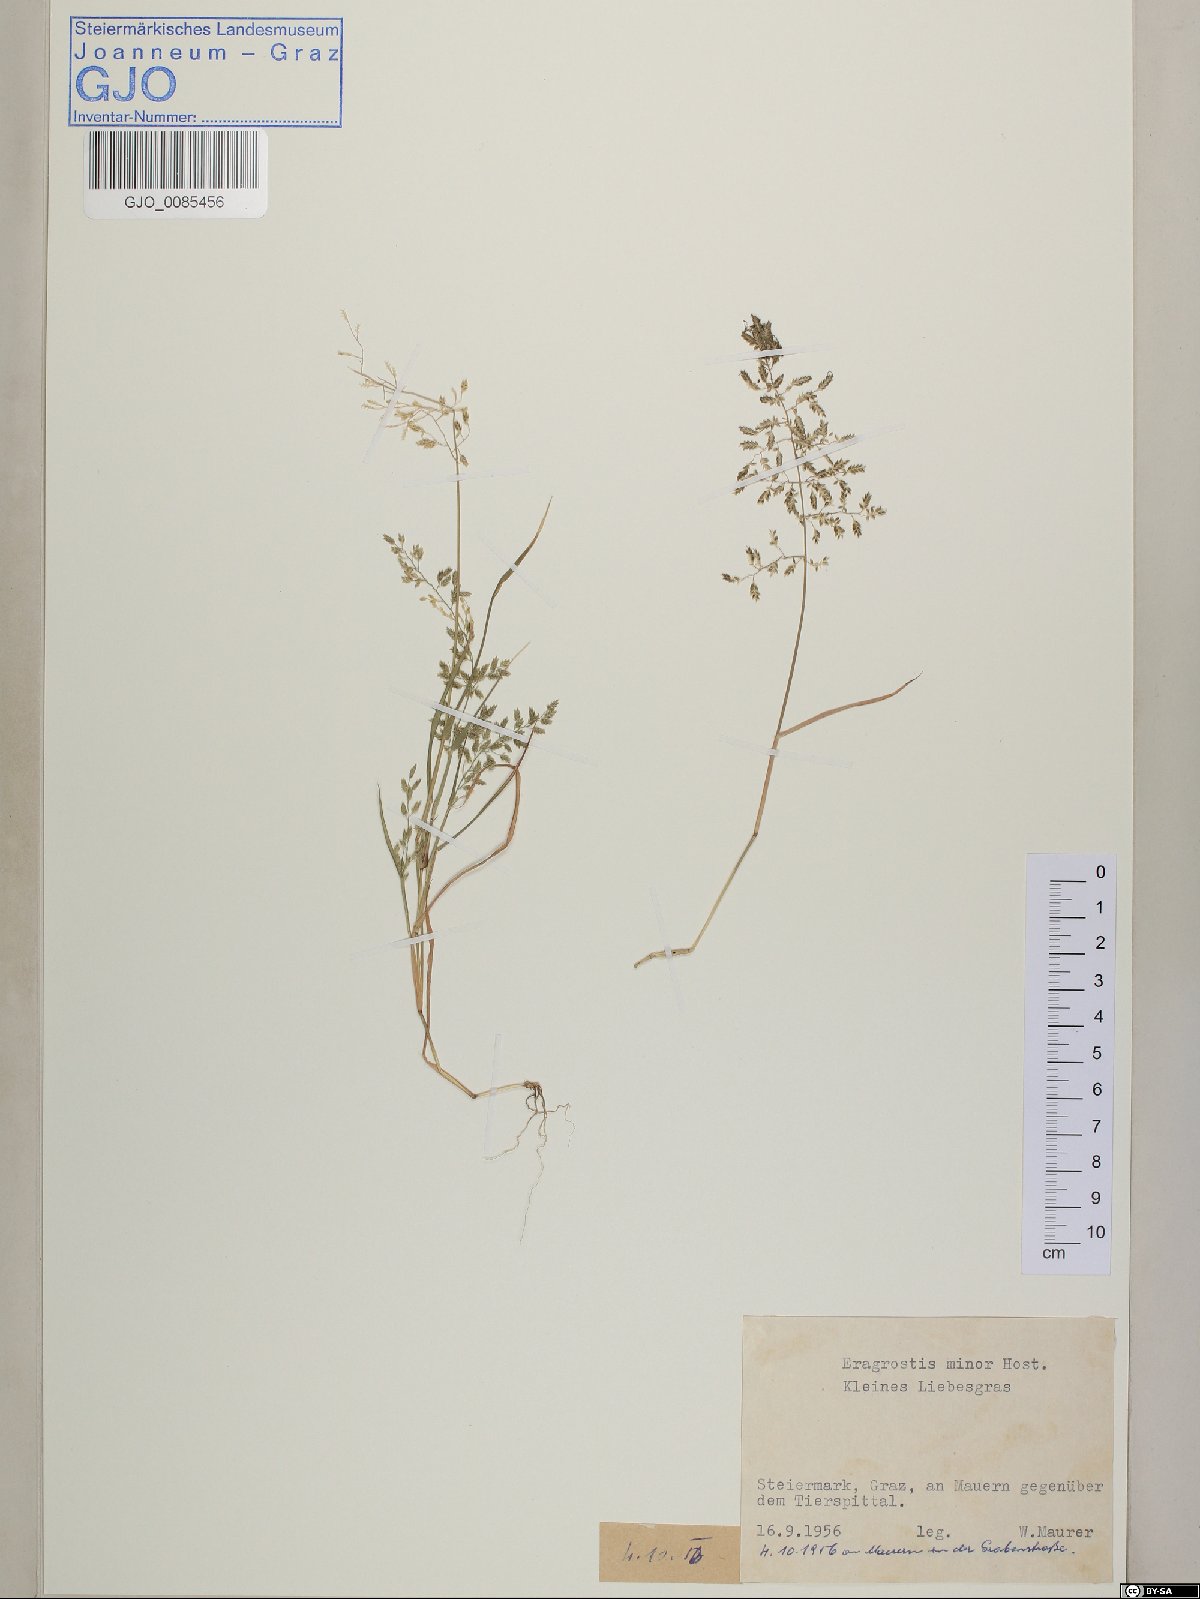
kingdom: Plantae
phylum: Tracheophyta
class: Liliopsida
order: Poales
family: Poaceae
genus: Eragrostis
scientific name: Eragrostis minor
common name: Small love-grass
